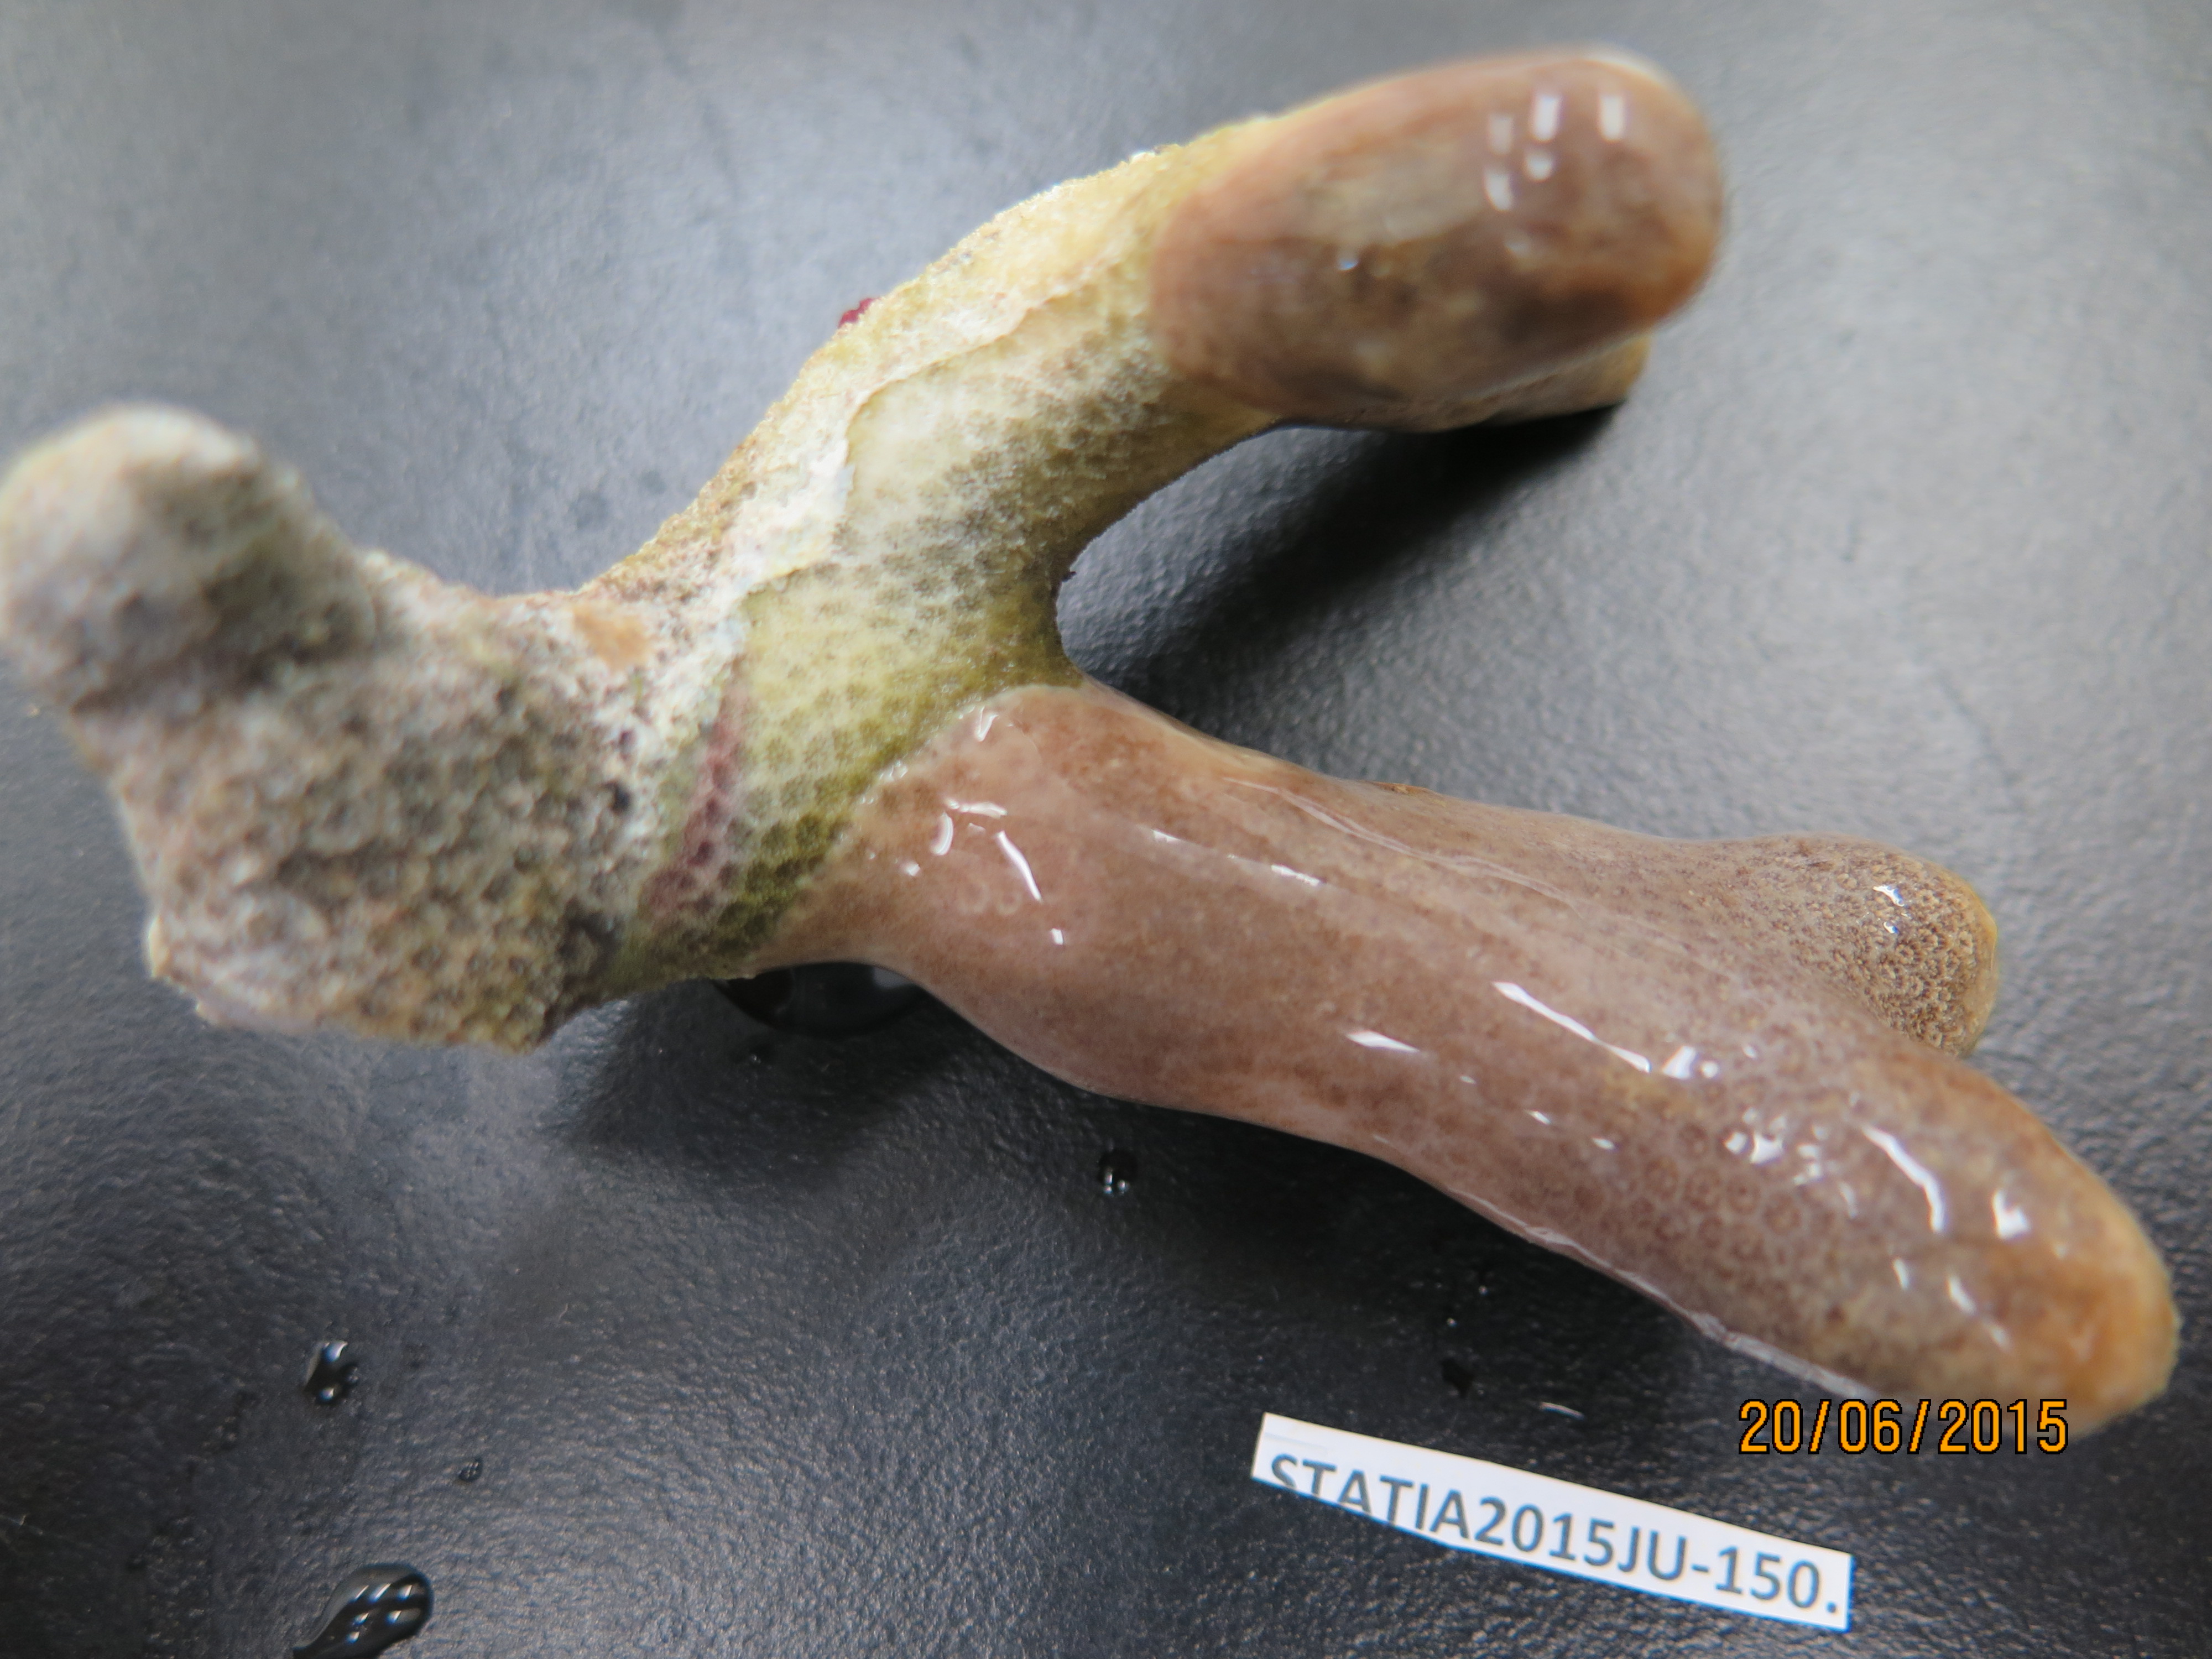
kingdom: Animalia
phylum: Cnidaria
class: Anthozoa
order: Scleractinia
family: Poritidae
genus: Porites
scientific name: Porites
